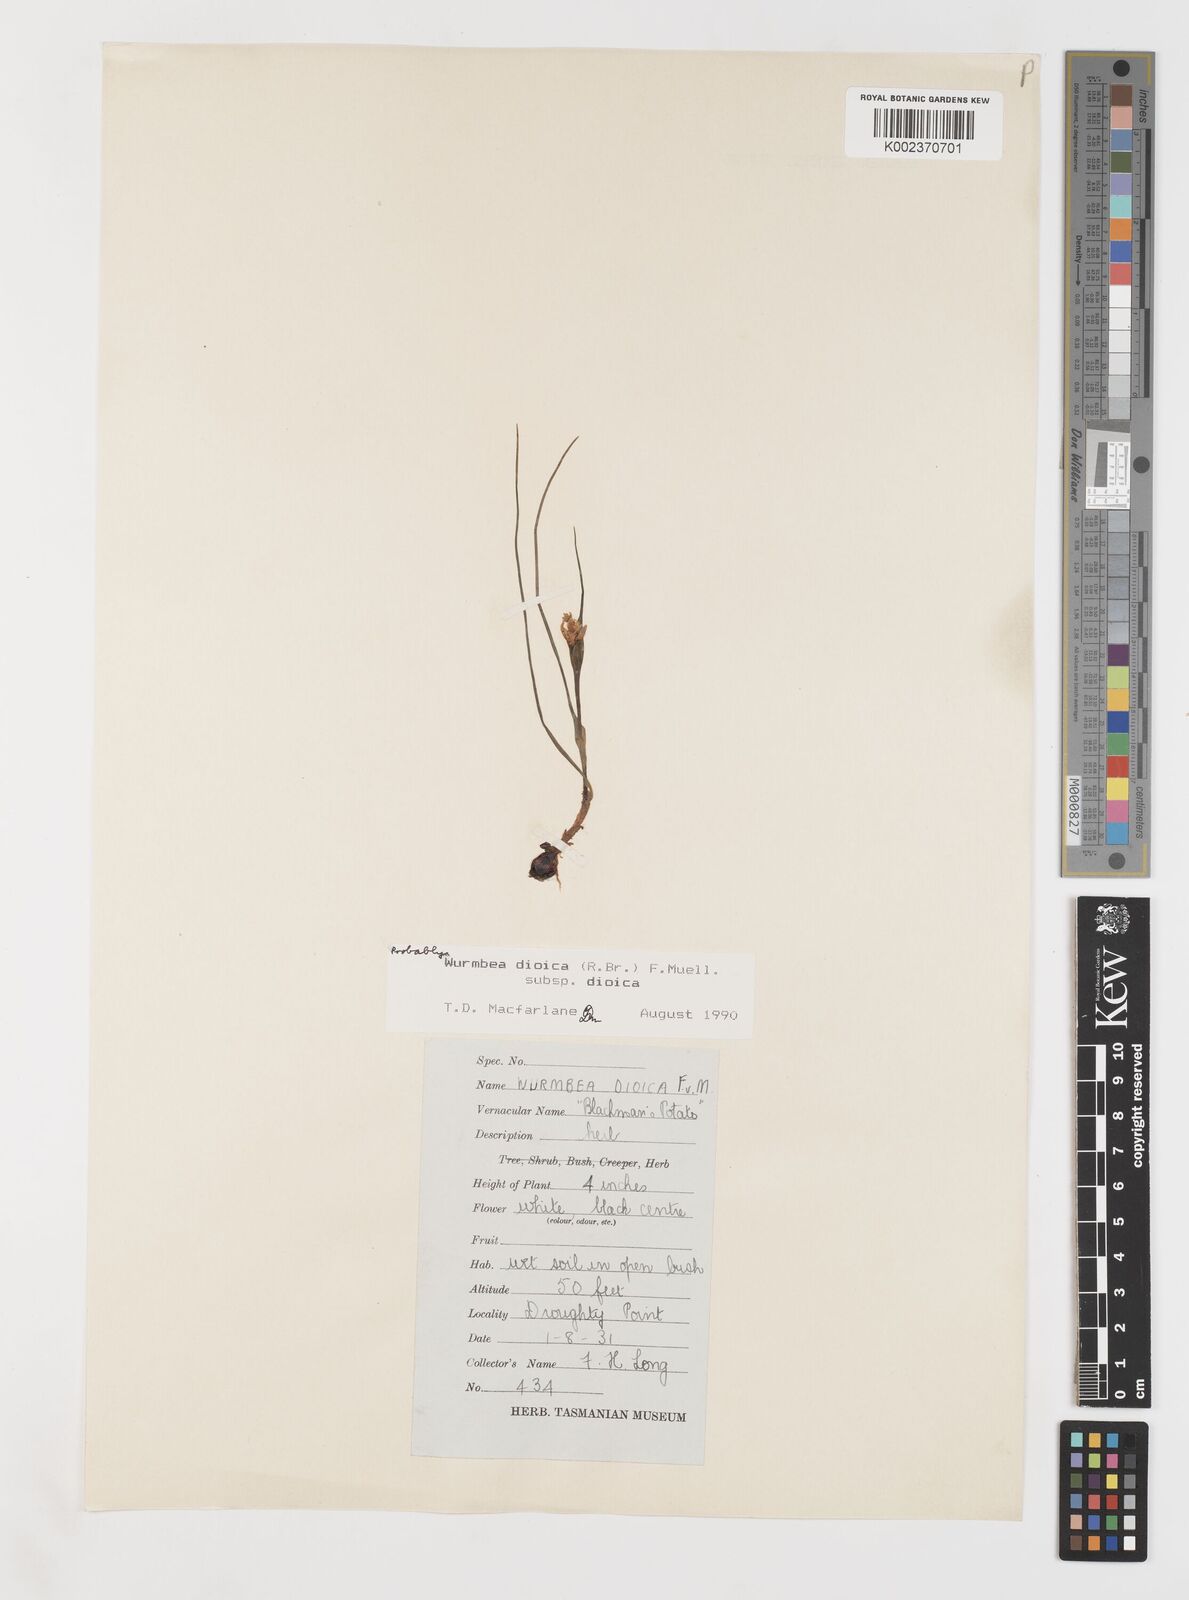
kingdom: Plantae
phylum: Tracheophyta
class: Liliopsida
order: Liliales
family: Colchicaceae
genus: Wurmbea
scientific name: Wurmbea dioica
